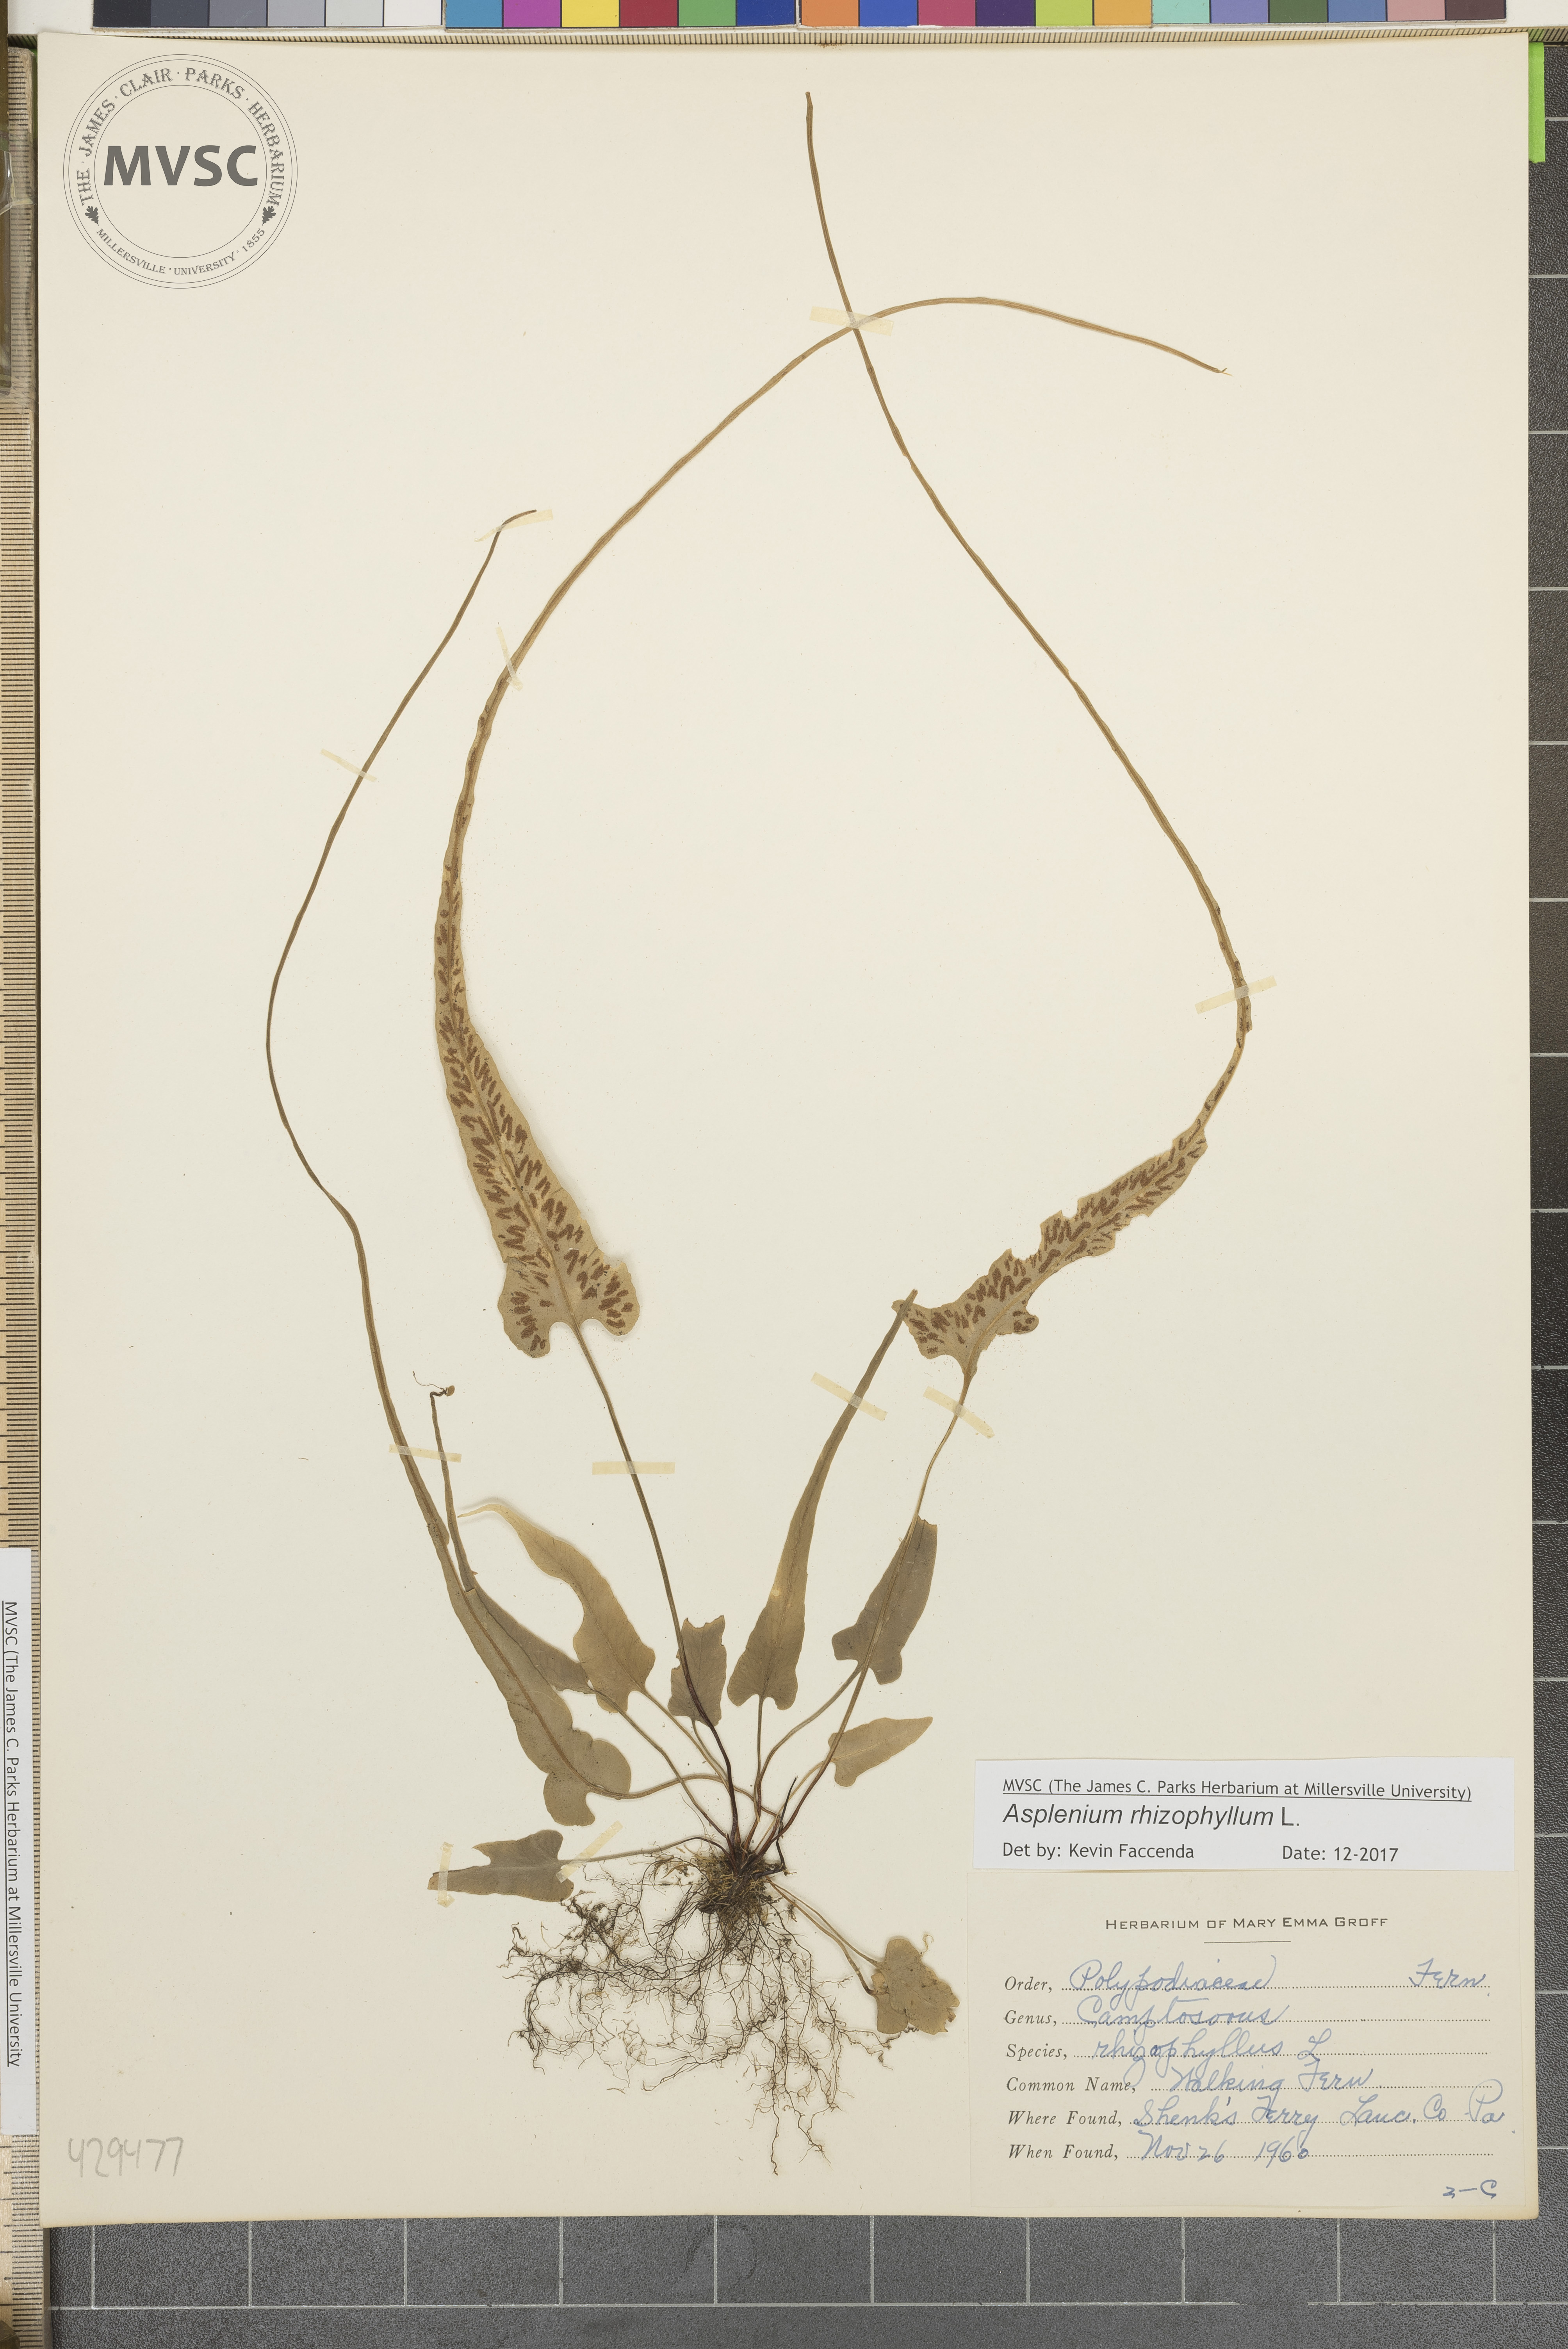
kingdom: Plantae
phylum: Tracheophyta
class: Polypodiopsida
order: Polypodiales
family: Aspleniaceae
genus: Asplenium
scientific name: Asplenium rhizophyllum
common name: Walking Fern
